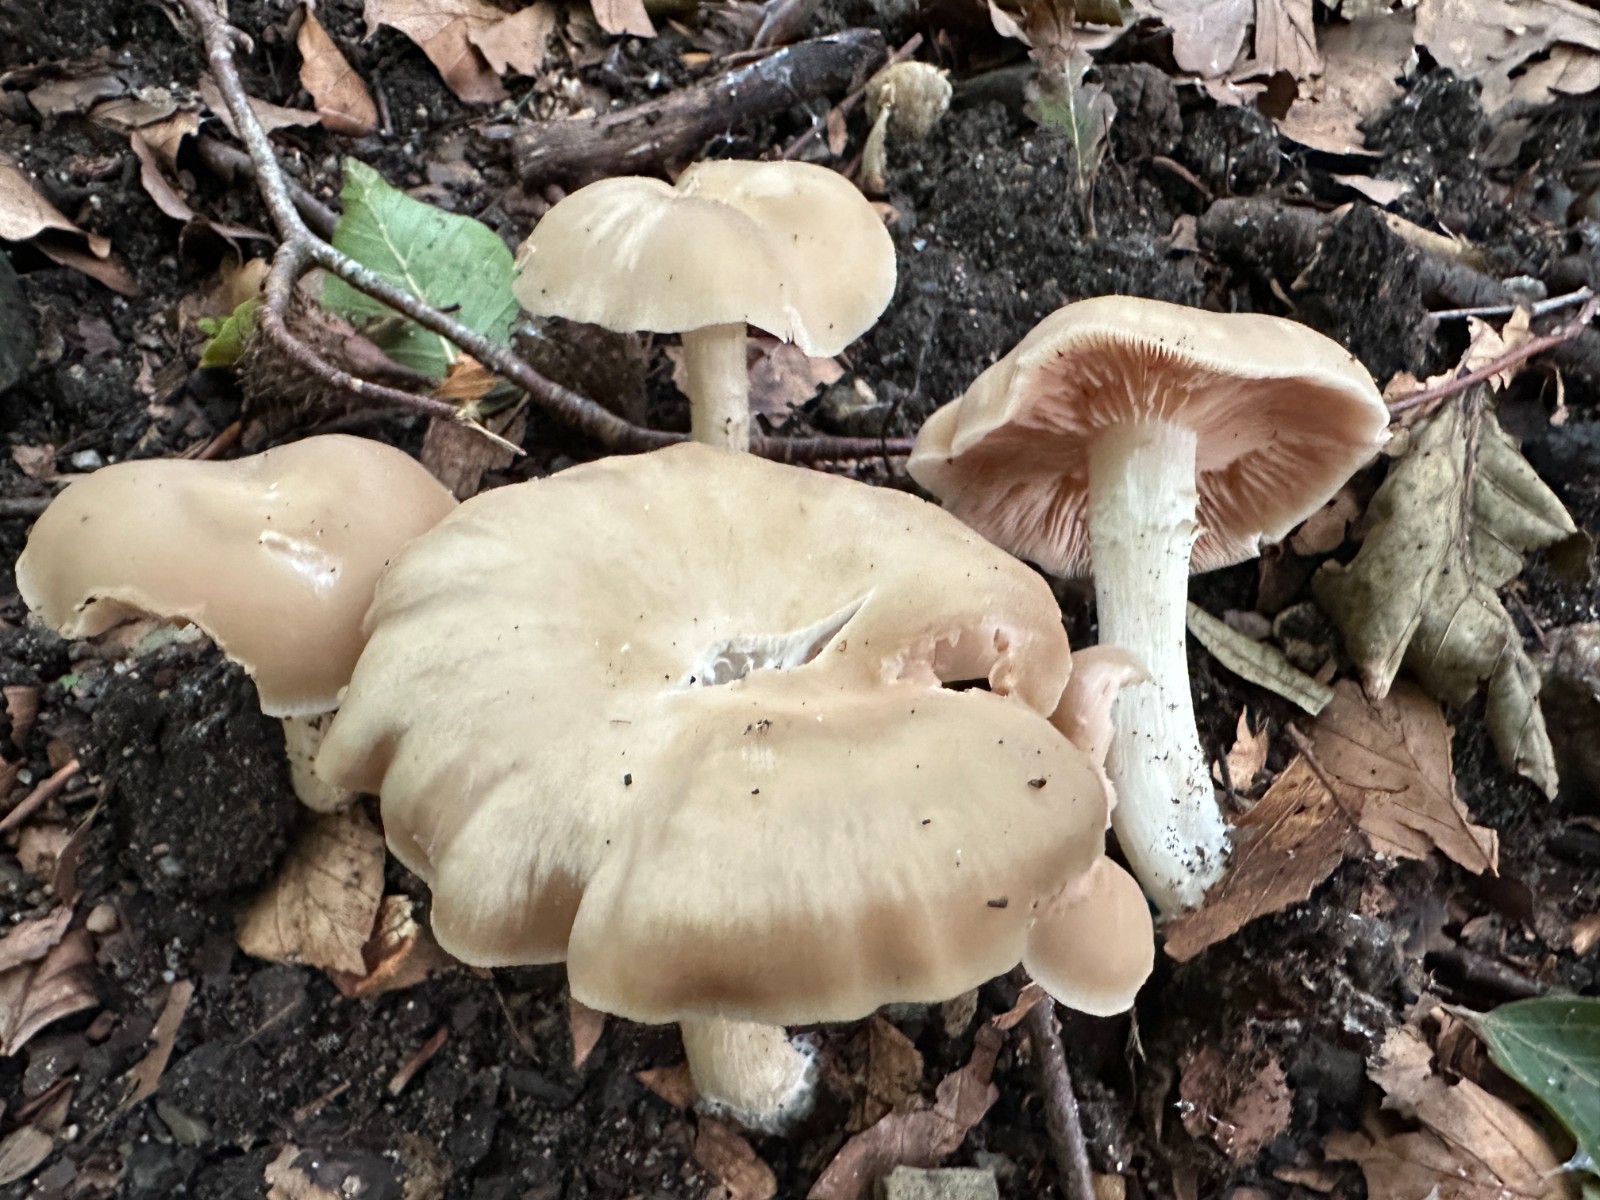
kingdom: Fungi
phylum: Basidiomycota
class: Agaricomycetes
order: Agaricales
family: Entolomataceae
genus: Entoloma
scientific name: Entoloma rhodopolium
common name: skov-rødblad
